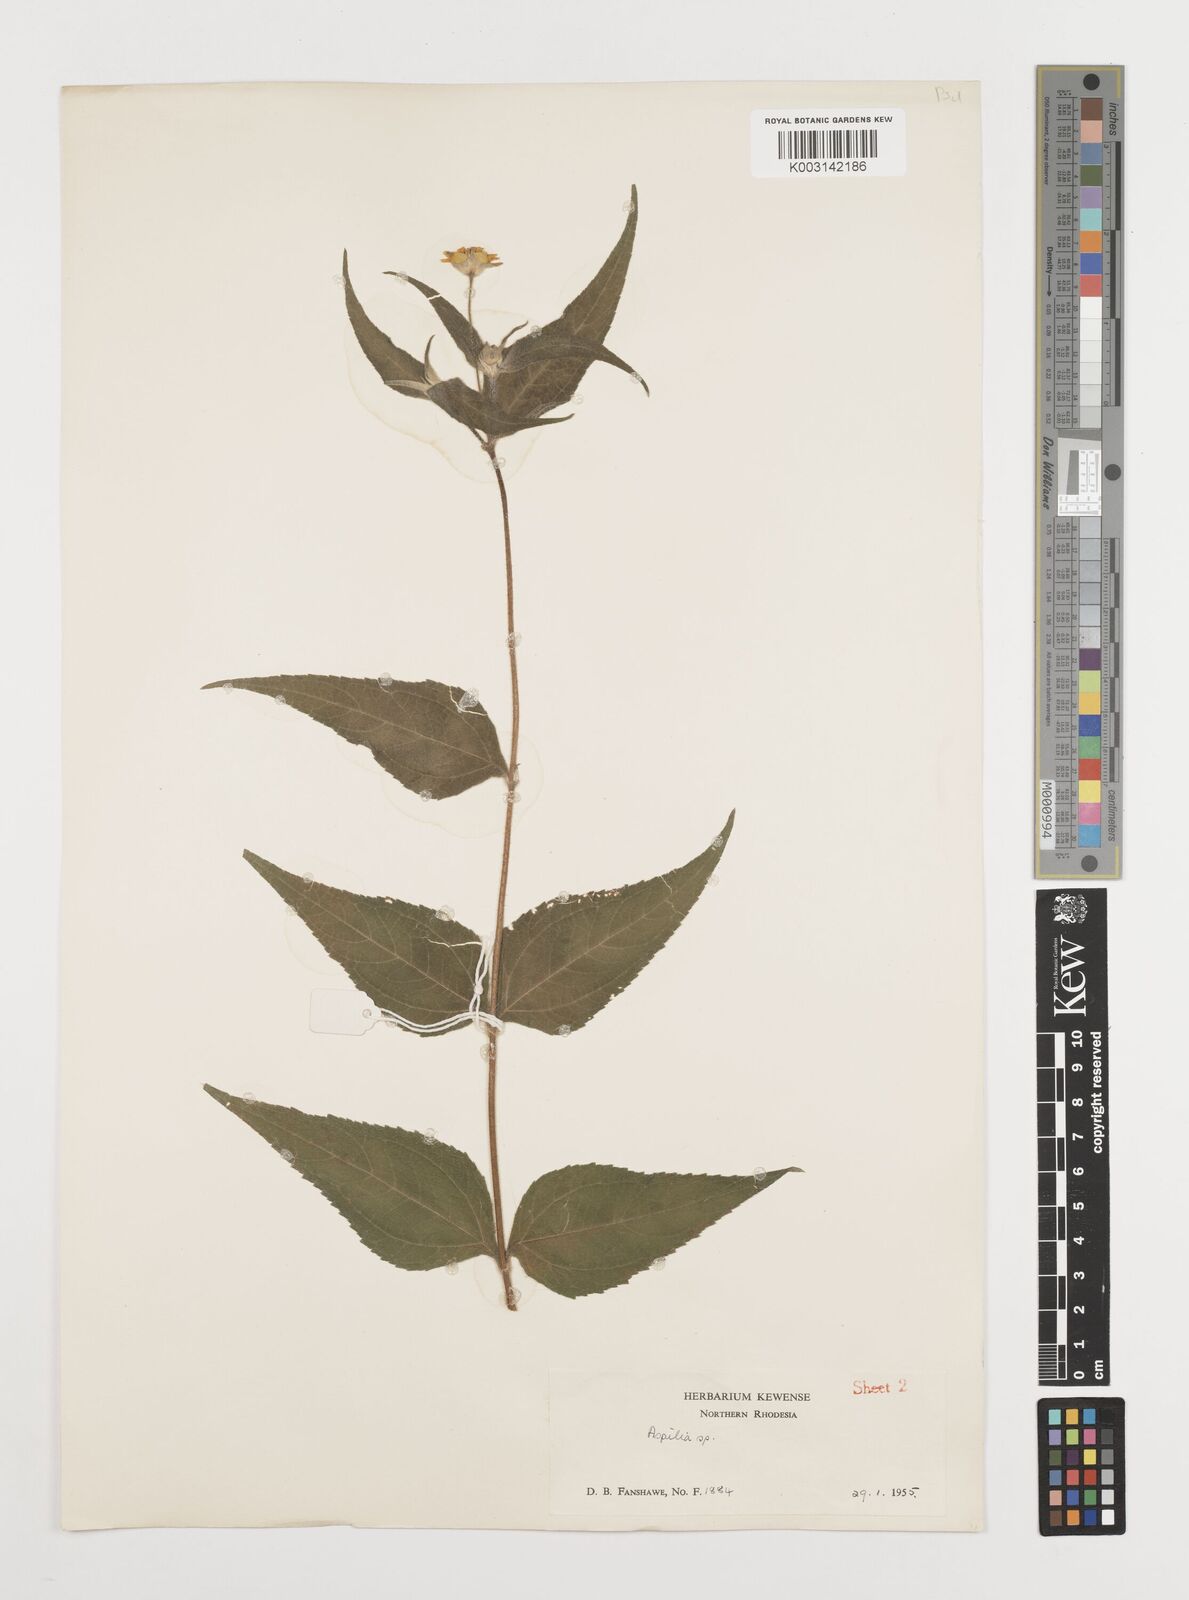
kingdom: Plantae
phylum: Tracheophyta
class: Magnoliopsida
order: Asterales
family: Asteraceae
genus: Aspilia
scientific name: Aspilia mossambicensis
